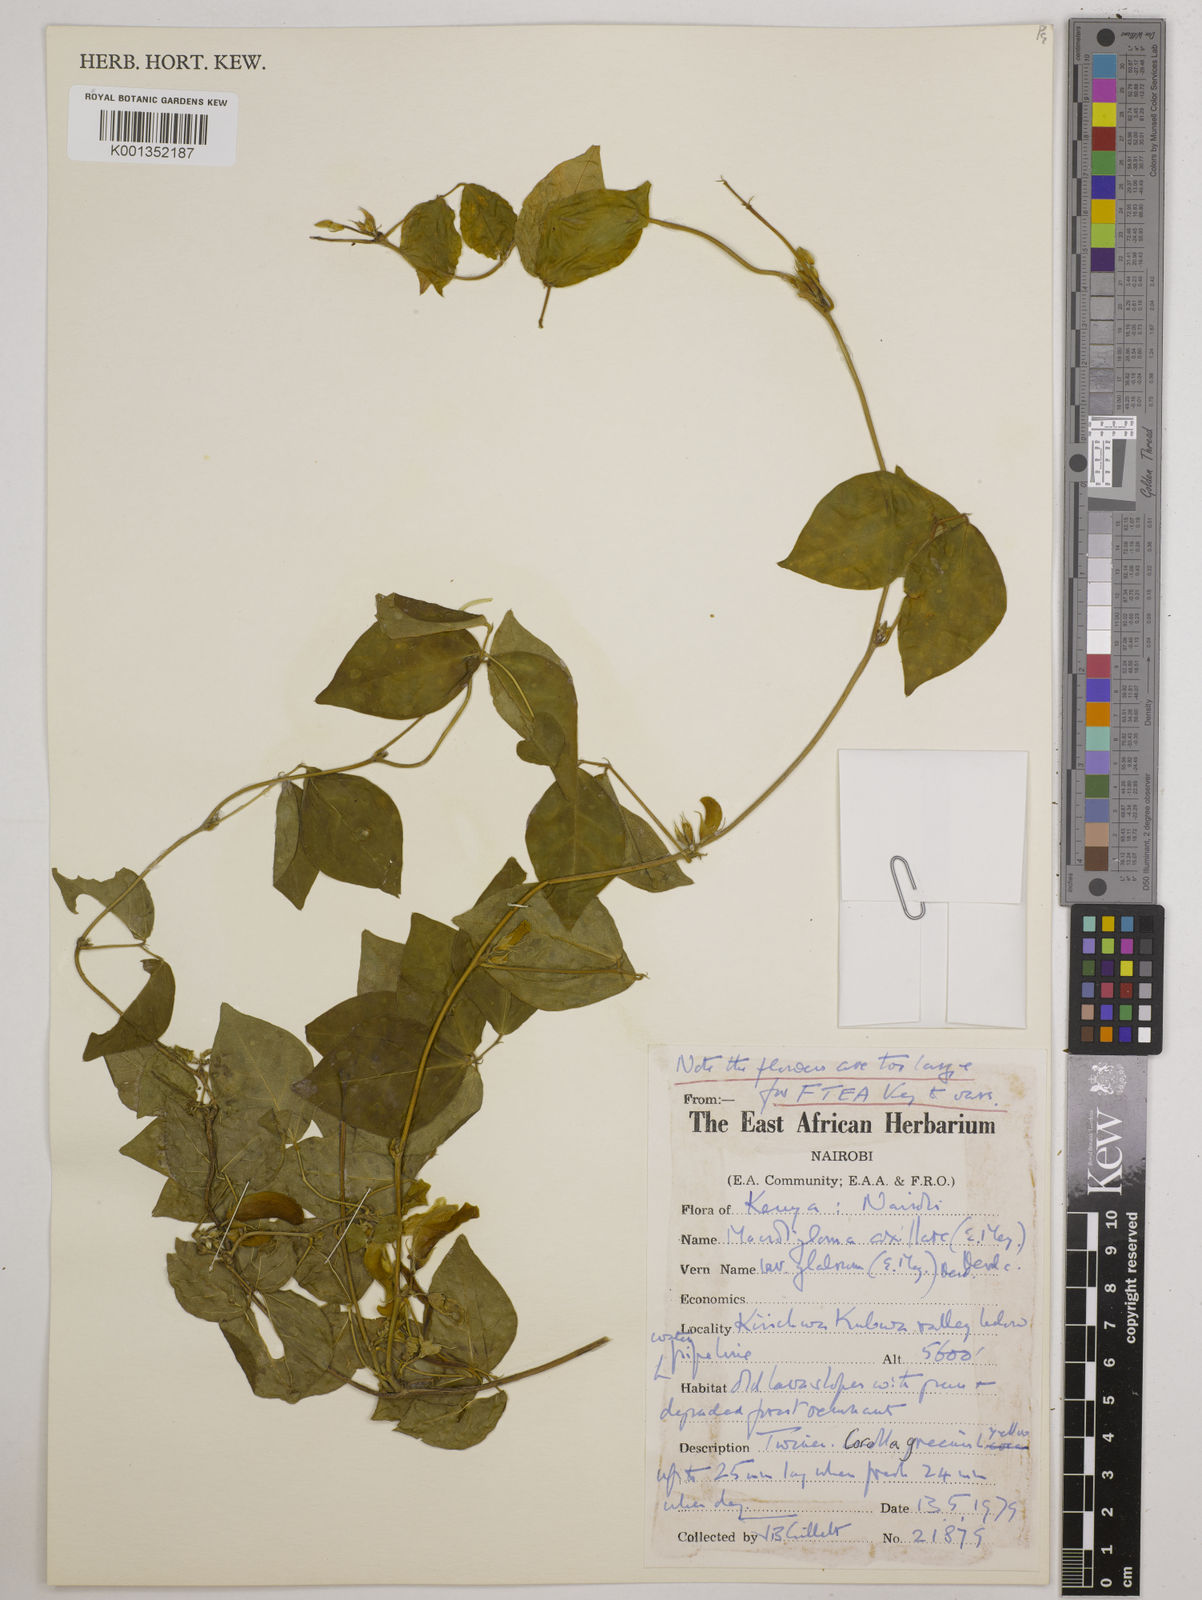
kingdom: Plantae
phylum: Tracheophyta
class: Magnoliopsida
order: Fabales
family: Fabaceae
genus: Macrotyloma
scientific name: Macrotyloma
